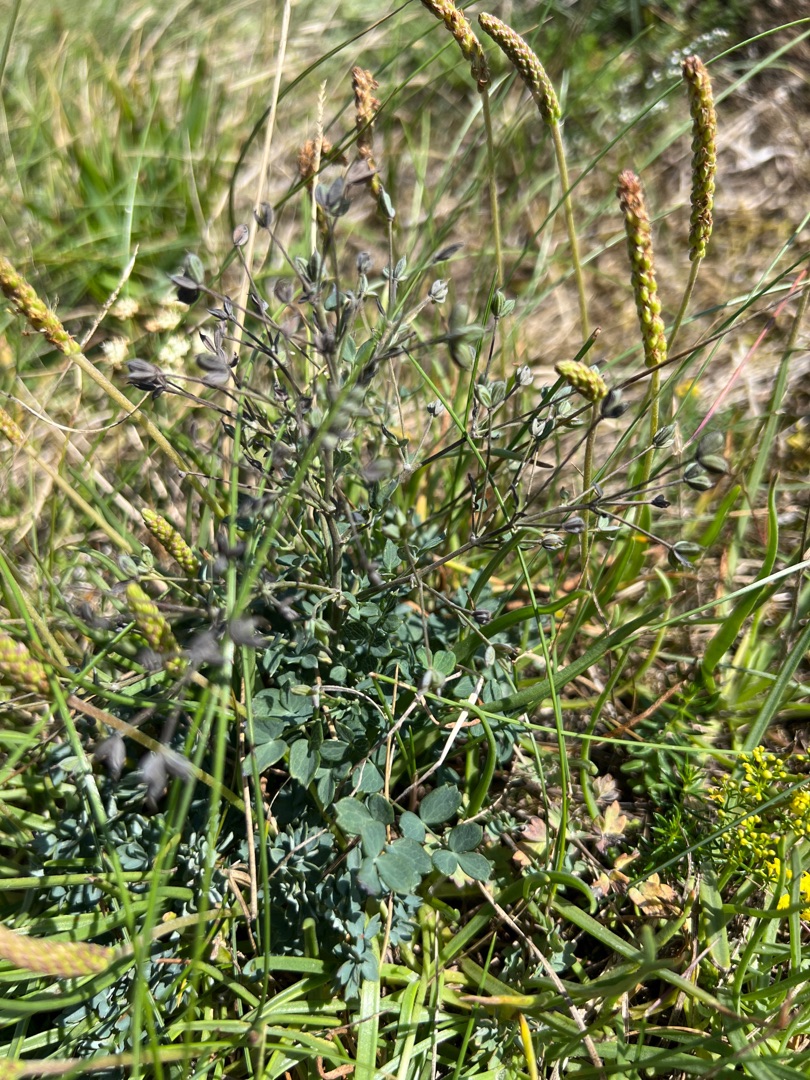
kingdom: Plantae
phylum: Tracheophyta
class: Magnoliopsida
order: Ranunculales
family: Ranunculaceae
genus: Thalictrum
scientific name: Thalictrum minus
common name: Sand-frøstjerne
